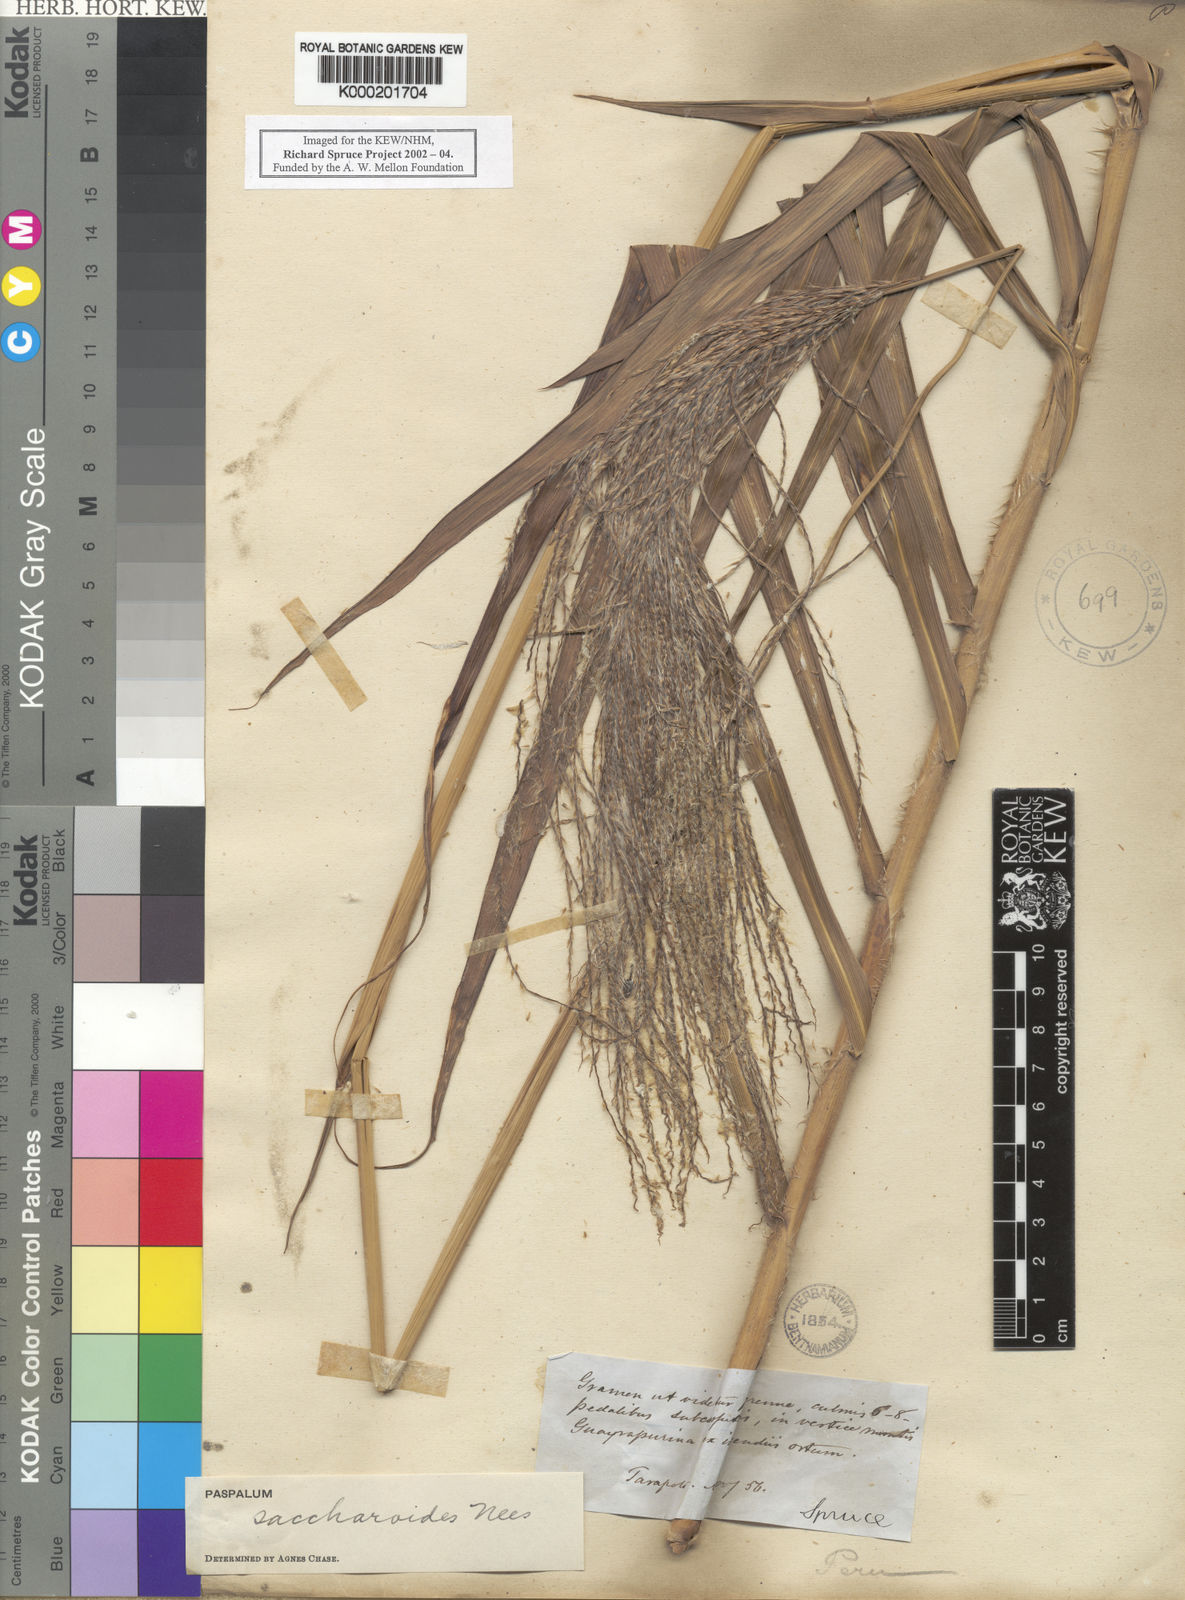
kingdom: Plantae
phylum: Tracheophyta
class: Liliopsida
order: Poales
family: Poaceae
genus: Paspalum
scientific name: Paspalum saccharoides
